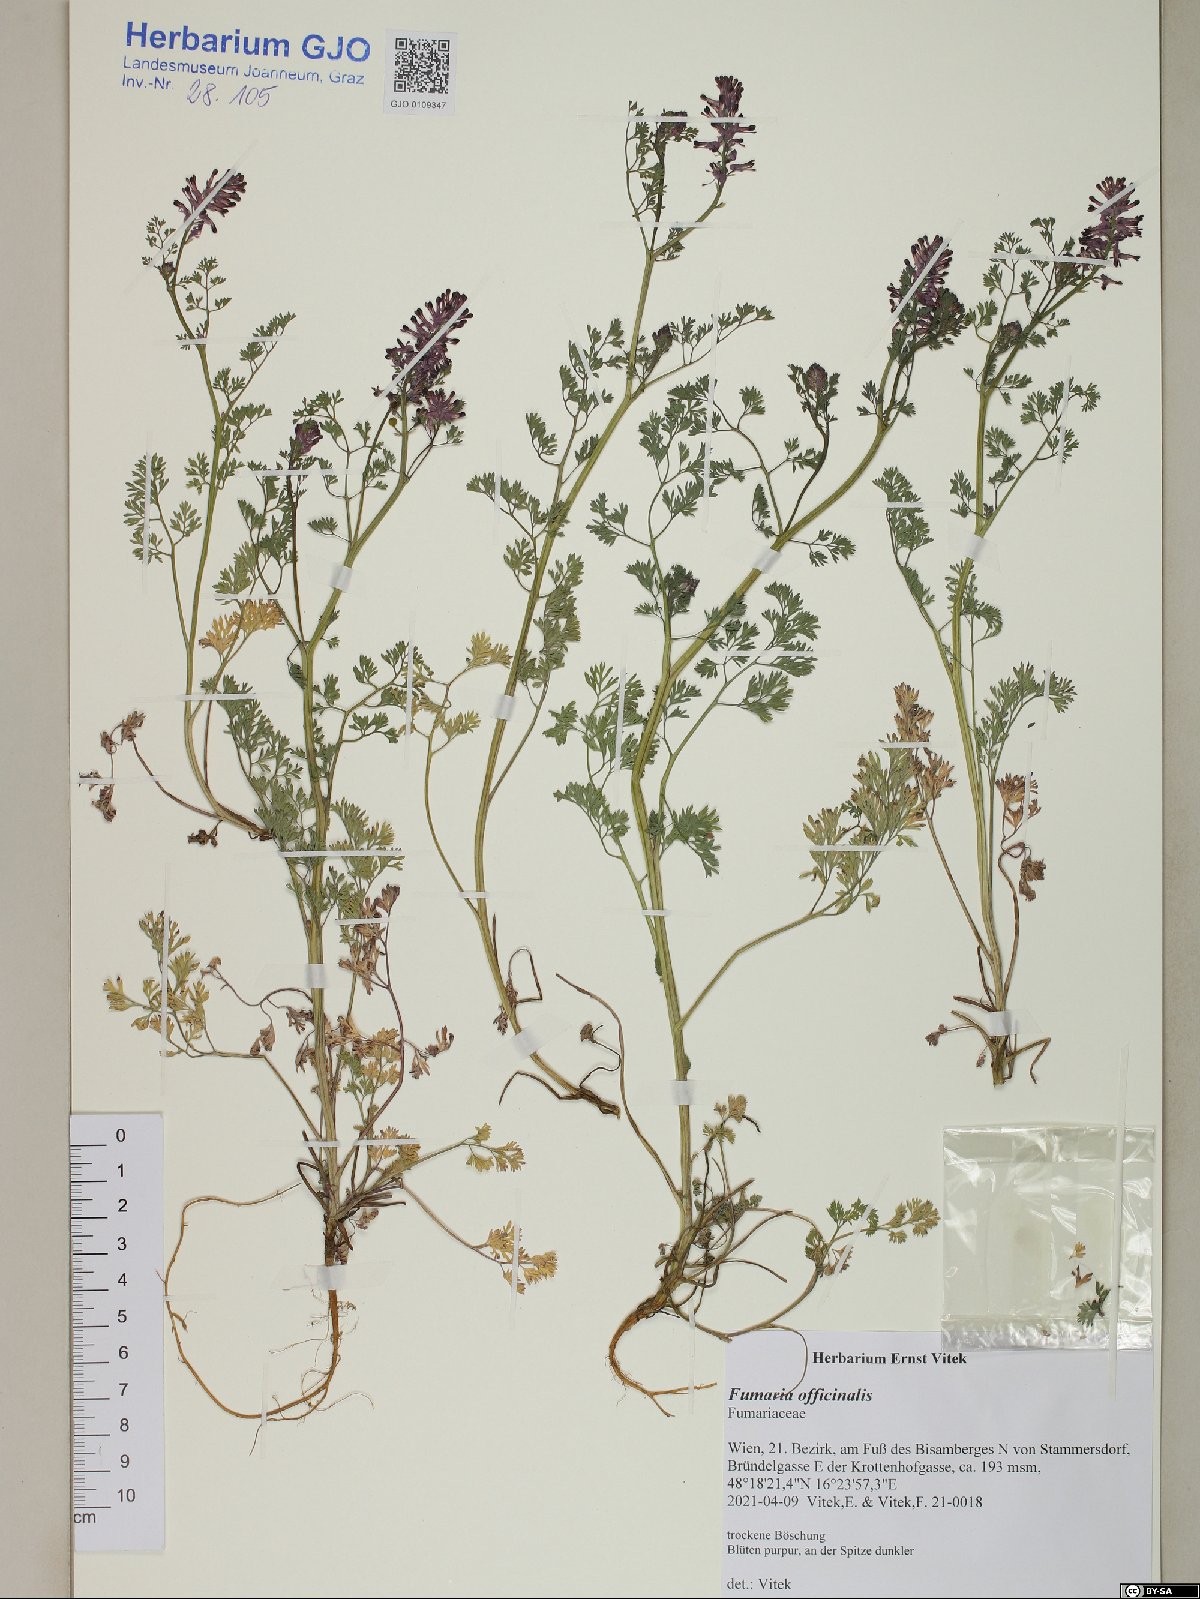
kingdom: Plantae
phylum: Tracheophyta
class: Magnoliopsida
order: Ranunculales
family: Papaveraceae
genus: Fumaria
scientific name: Fumaria officinalis
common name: Common fumitory
